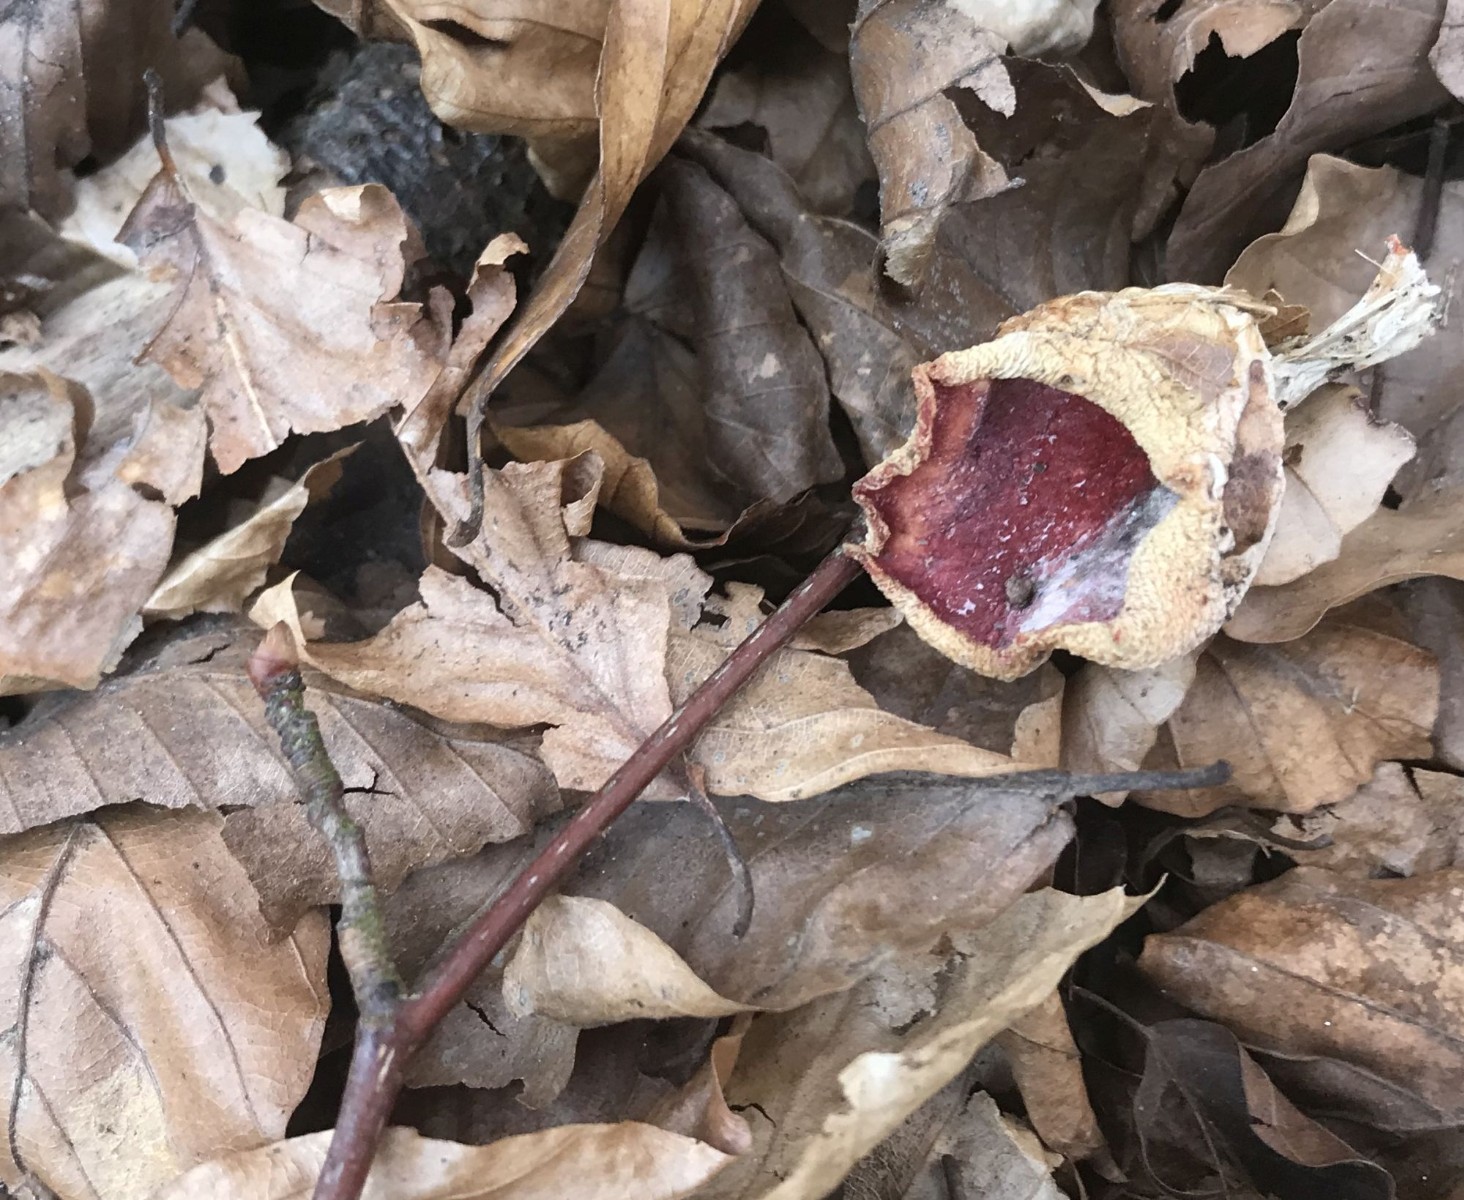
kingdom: Fungi
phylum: Ascomycota
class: Pezizomycetes
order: Pezizales
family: Sarcoscyphaceae
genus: Sarcoscypha
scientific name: Sarcoscypha coccinea
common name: skarlagen-pragtbæger
